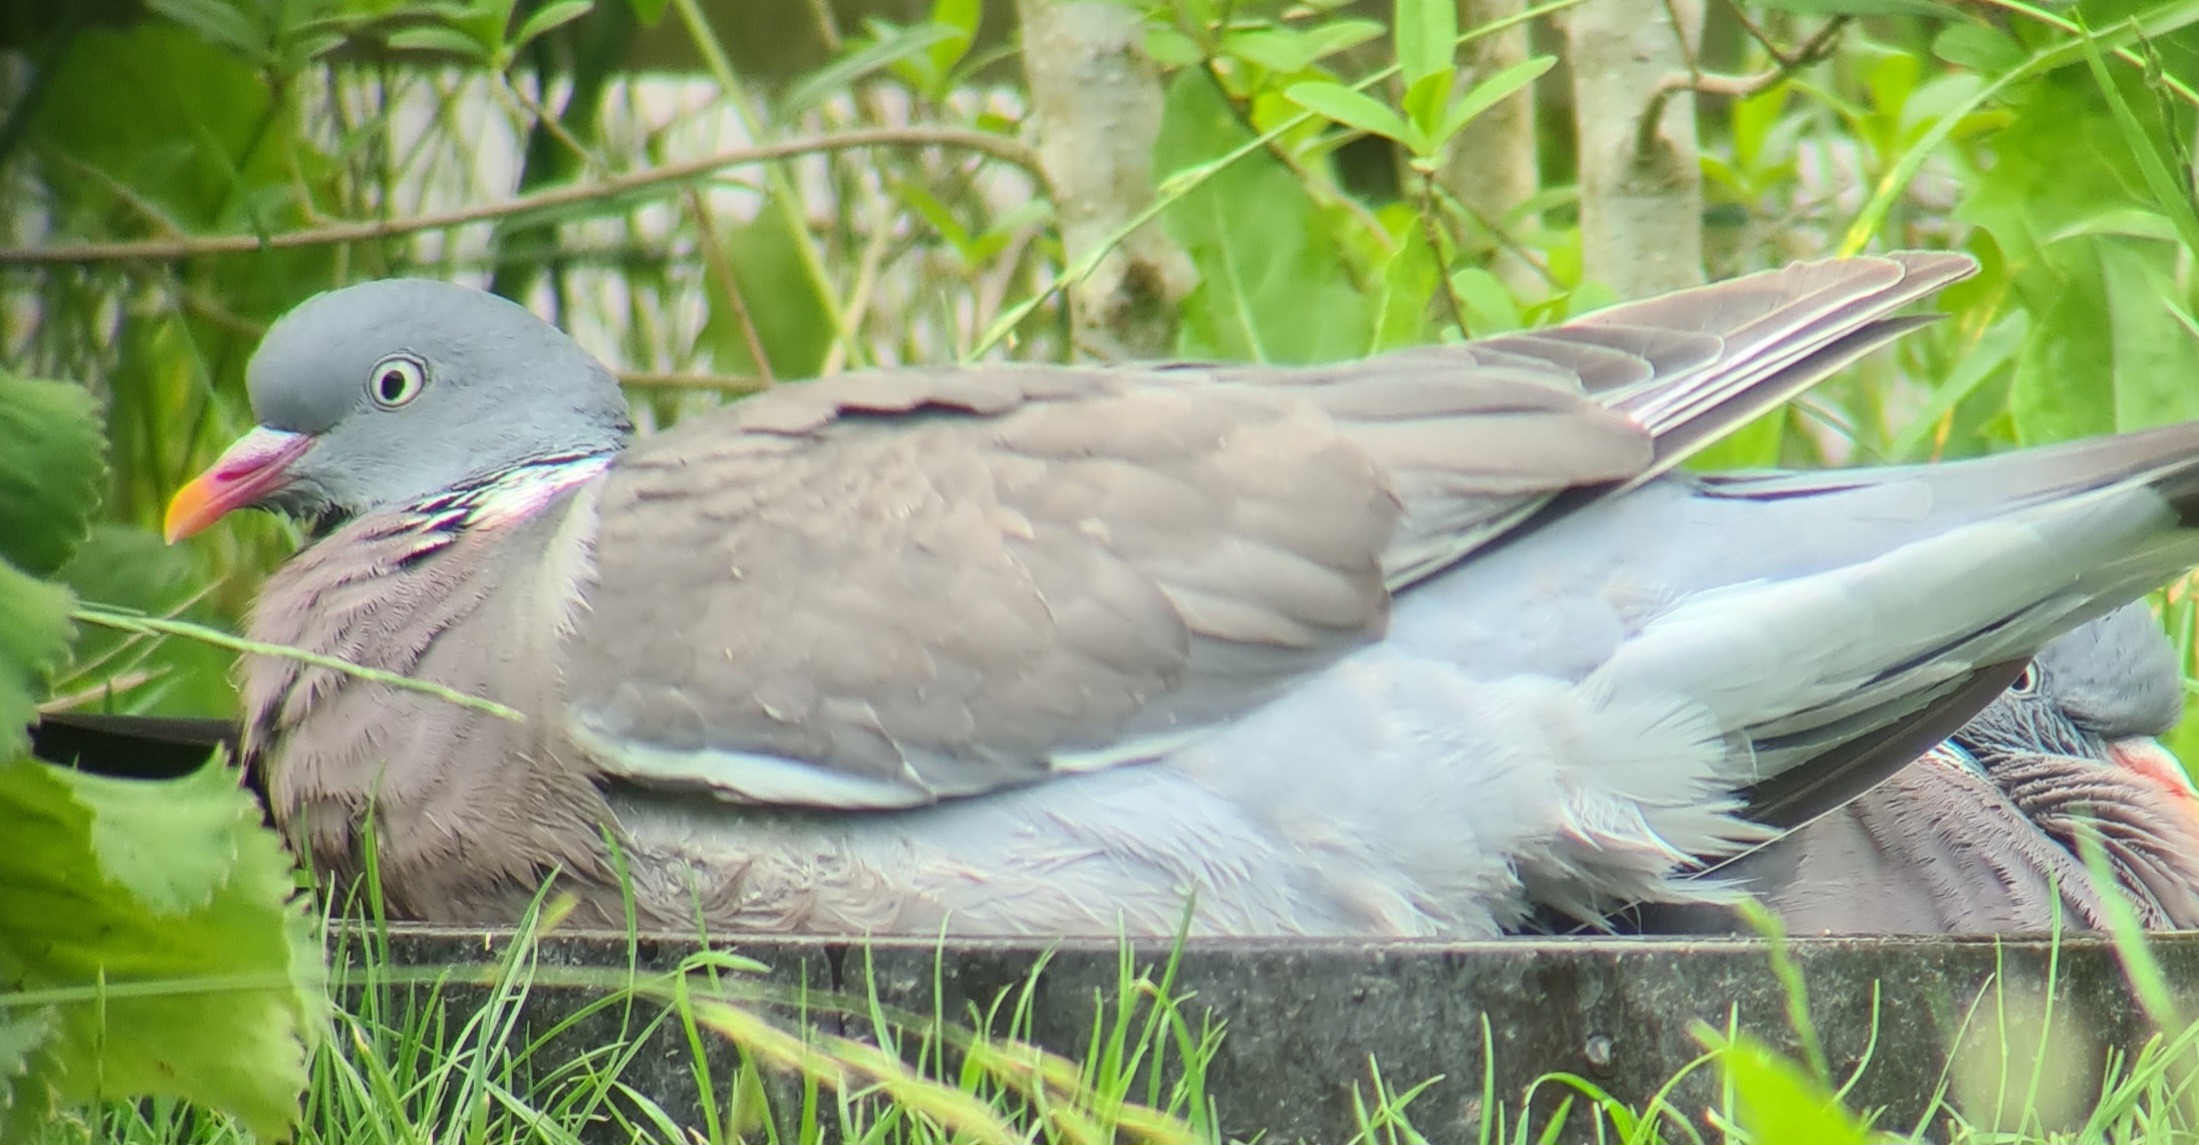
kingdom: Animalia
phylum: Chordata
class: Aves
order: Columbiformes
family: Columbidae
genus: Columba
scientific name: Columba palumbus
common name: Ringdue
